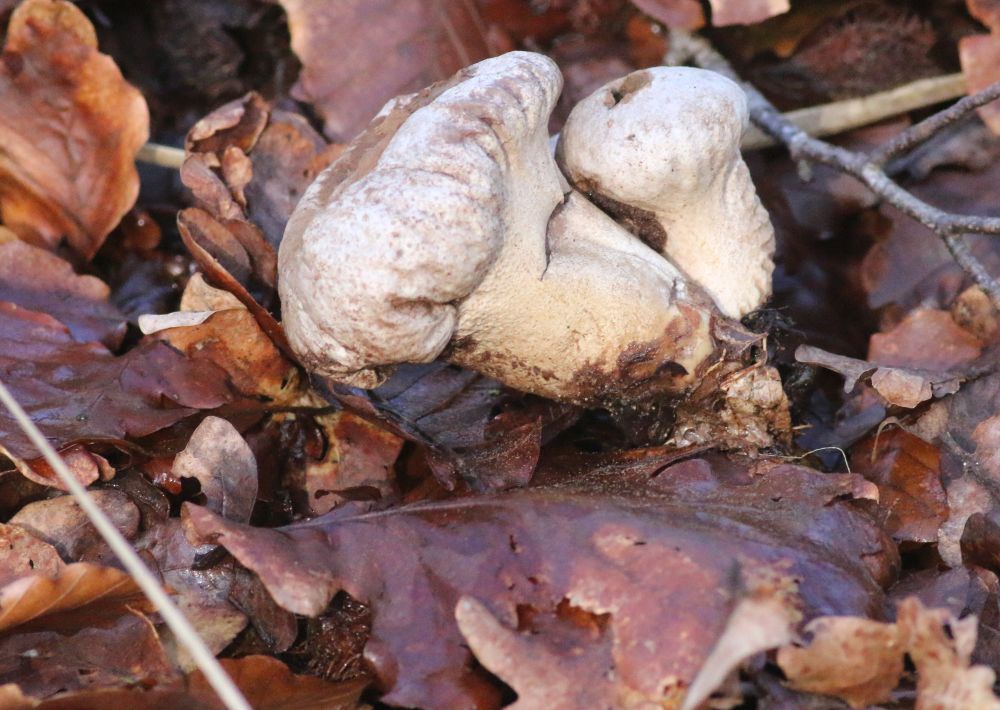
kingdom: Fungi
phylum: Basidiomycota
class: Agaricomycetes
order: Agaricales
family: Lycoperdaceae
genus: Lycoperdon
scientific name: Lycoperdon excipuliforme
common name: højstokket støvbold
